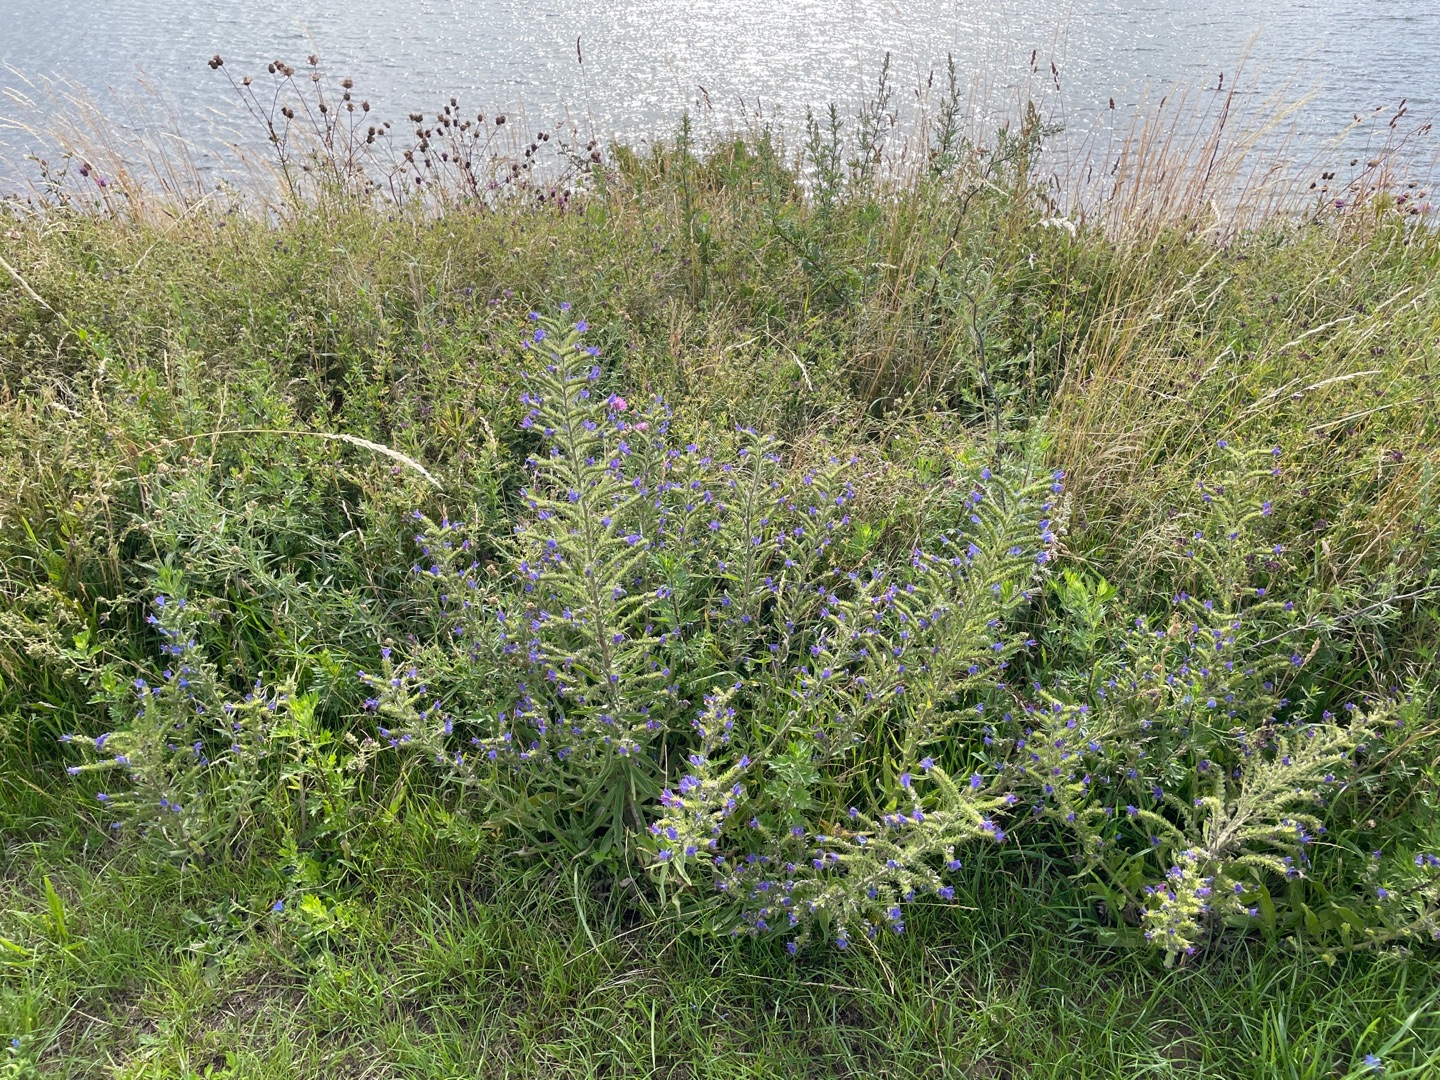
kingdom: Plantae
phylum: Tracheophyta
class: Magnoliopsida
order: Boraginales
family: Boraginaceae
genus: Echium
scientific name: Echium vulgare
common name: Slangehoved
